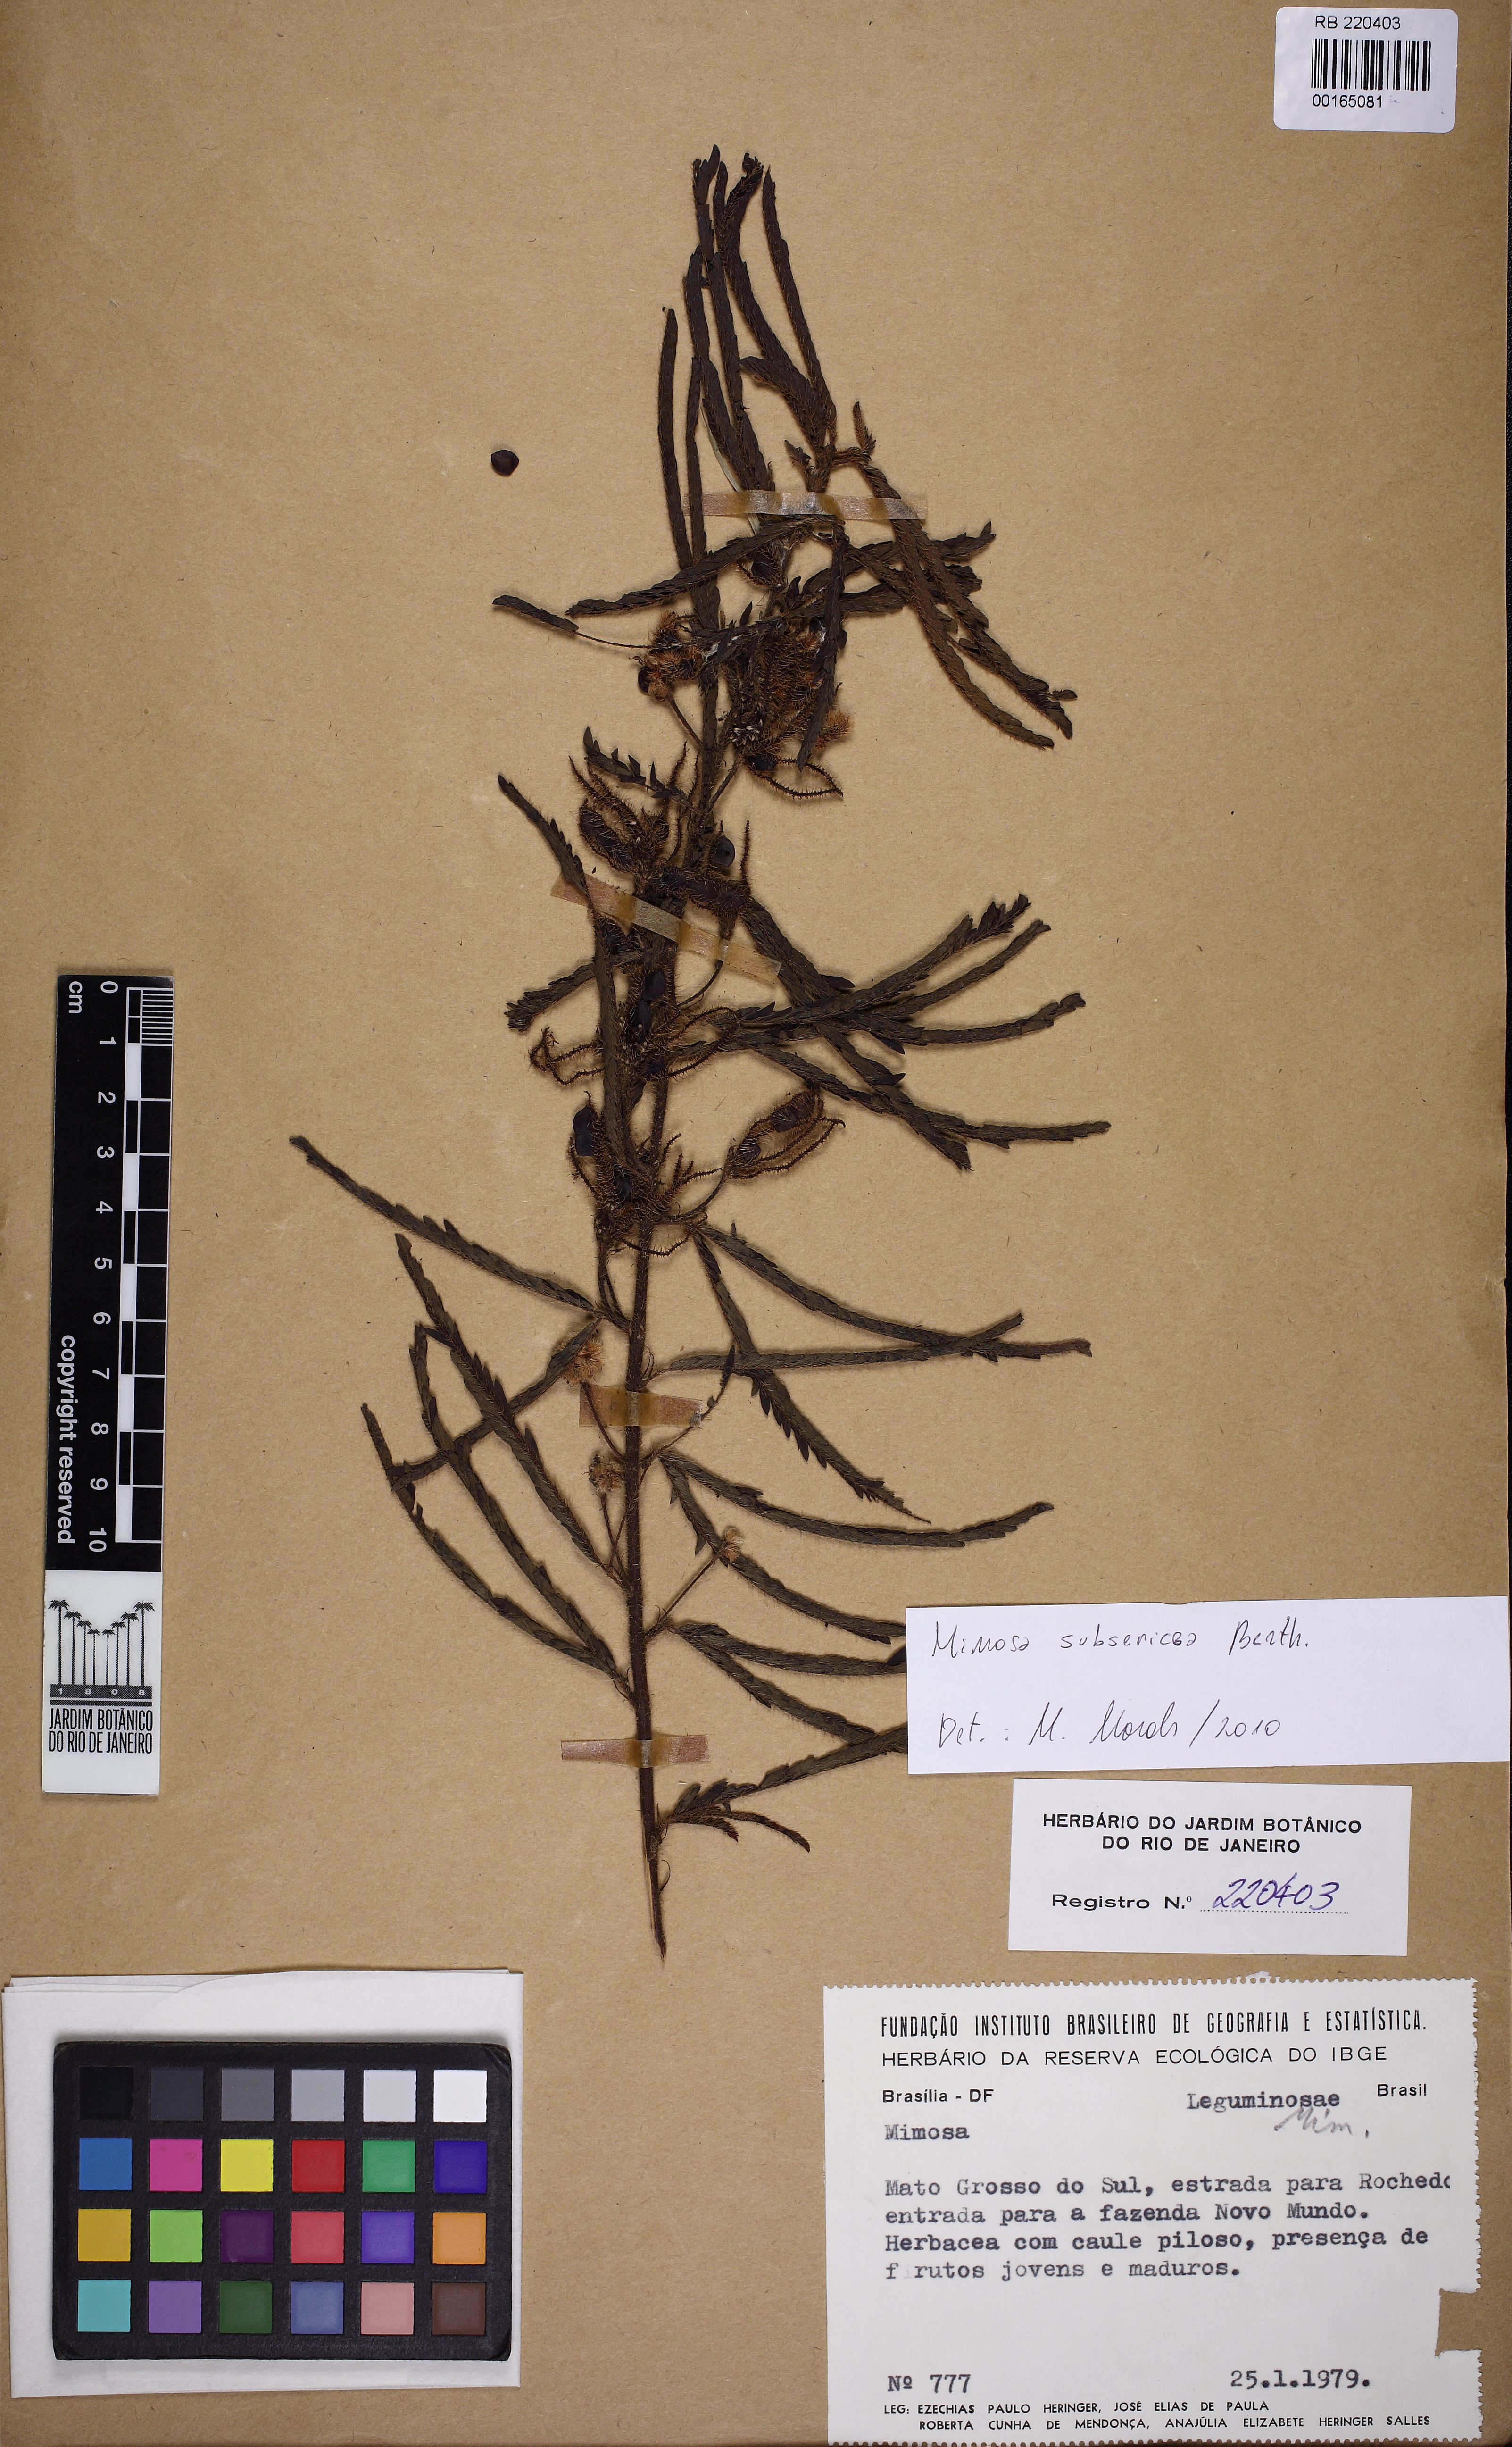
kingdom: Plantae
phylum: Tracheophyta
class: Magnoliopsida
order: Fabales
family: Fabaceae
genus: Mimosa
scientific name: Mimosa xanthocentra
